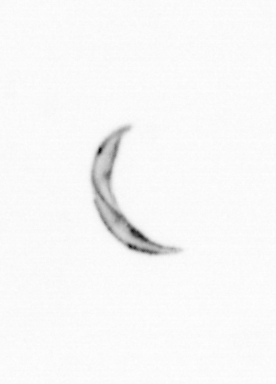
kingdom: Chromista
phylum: Ochrophyta
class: Bacillariophyceae
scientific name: Bacillariophyceae
